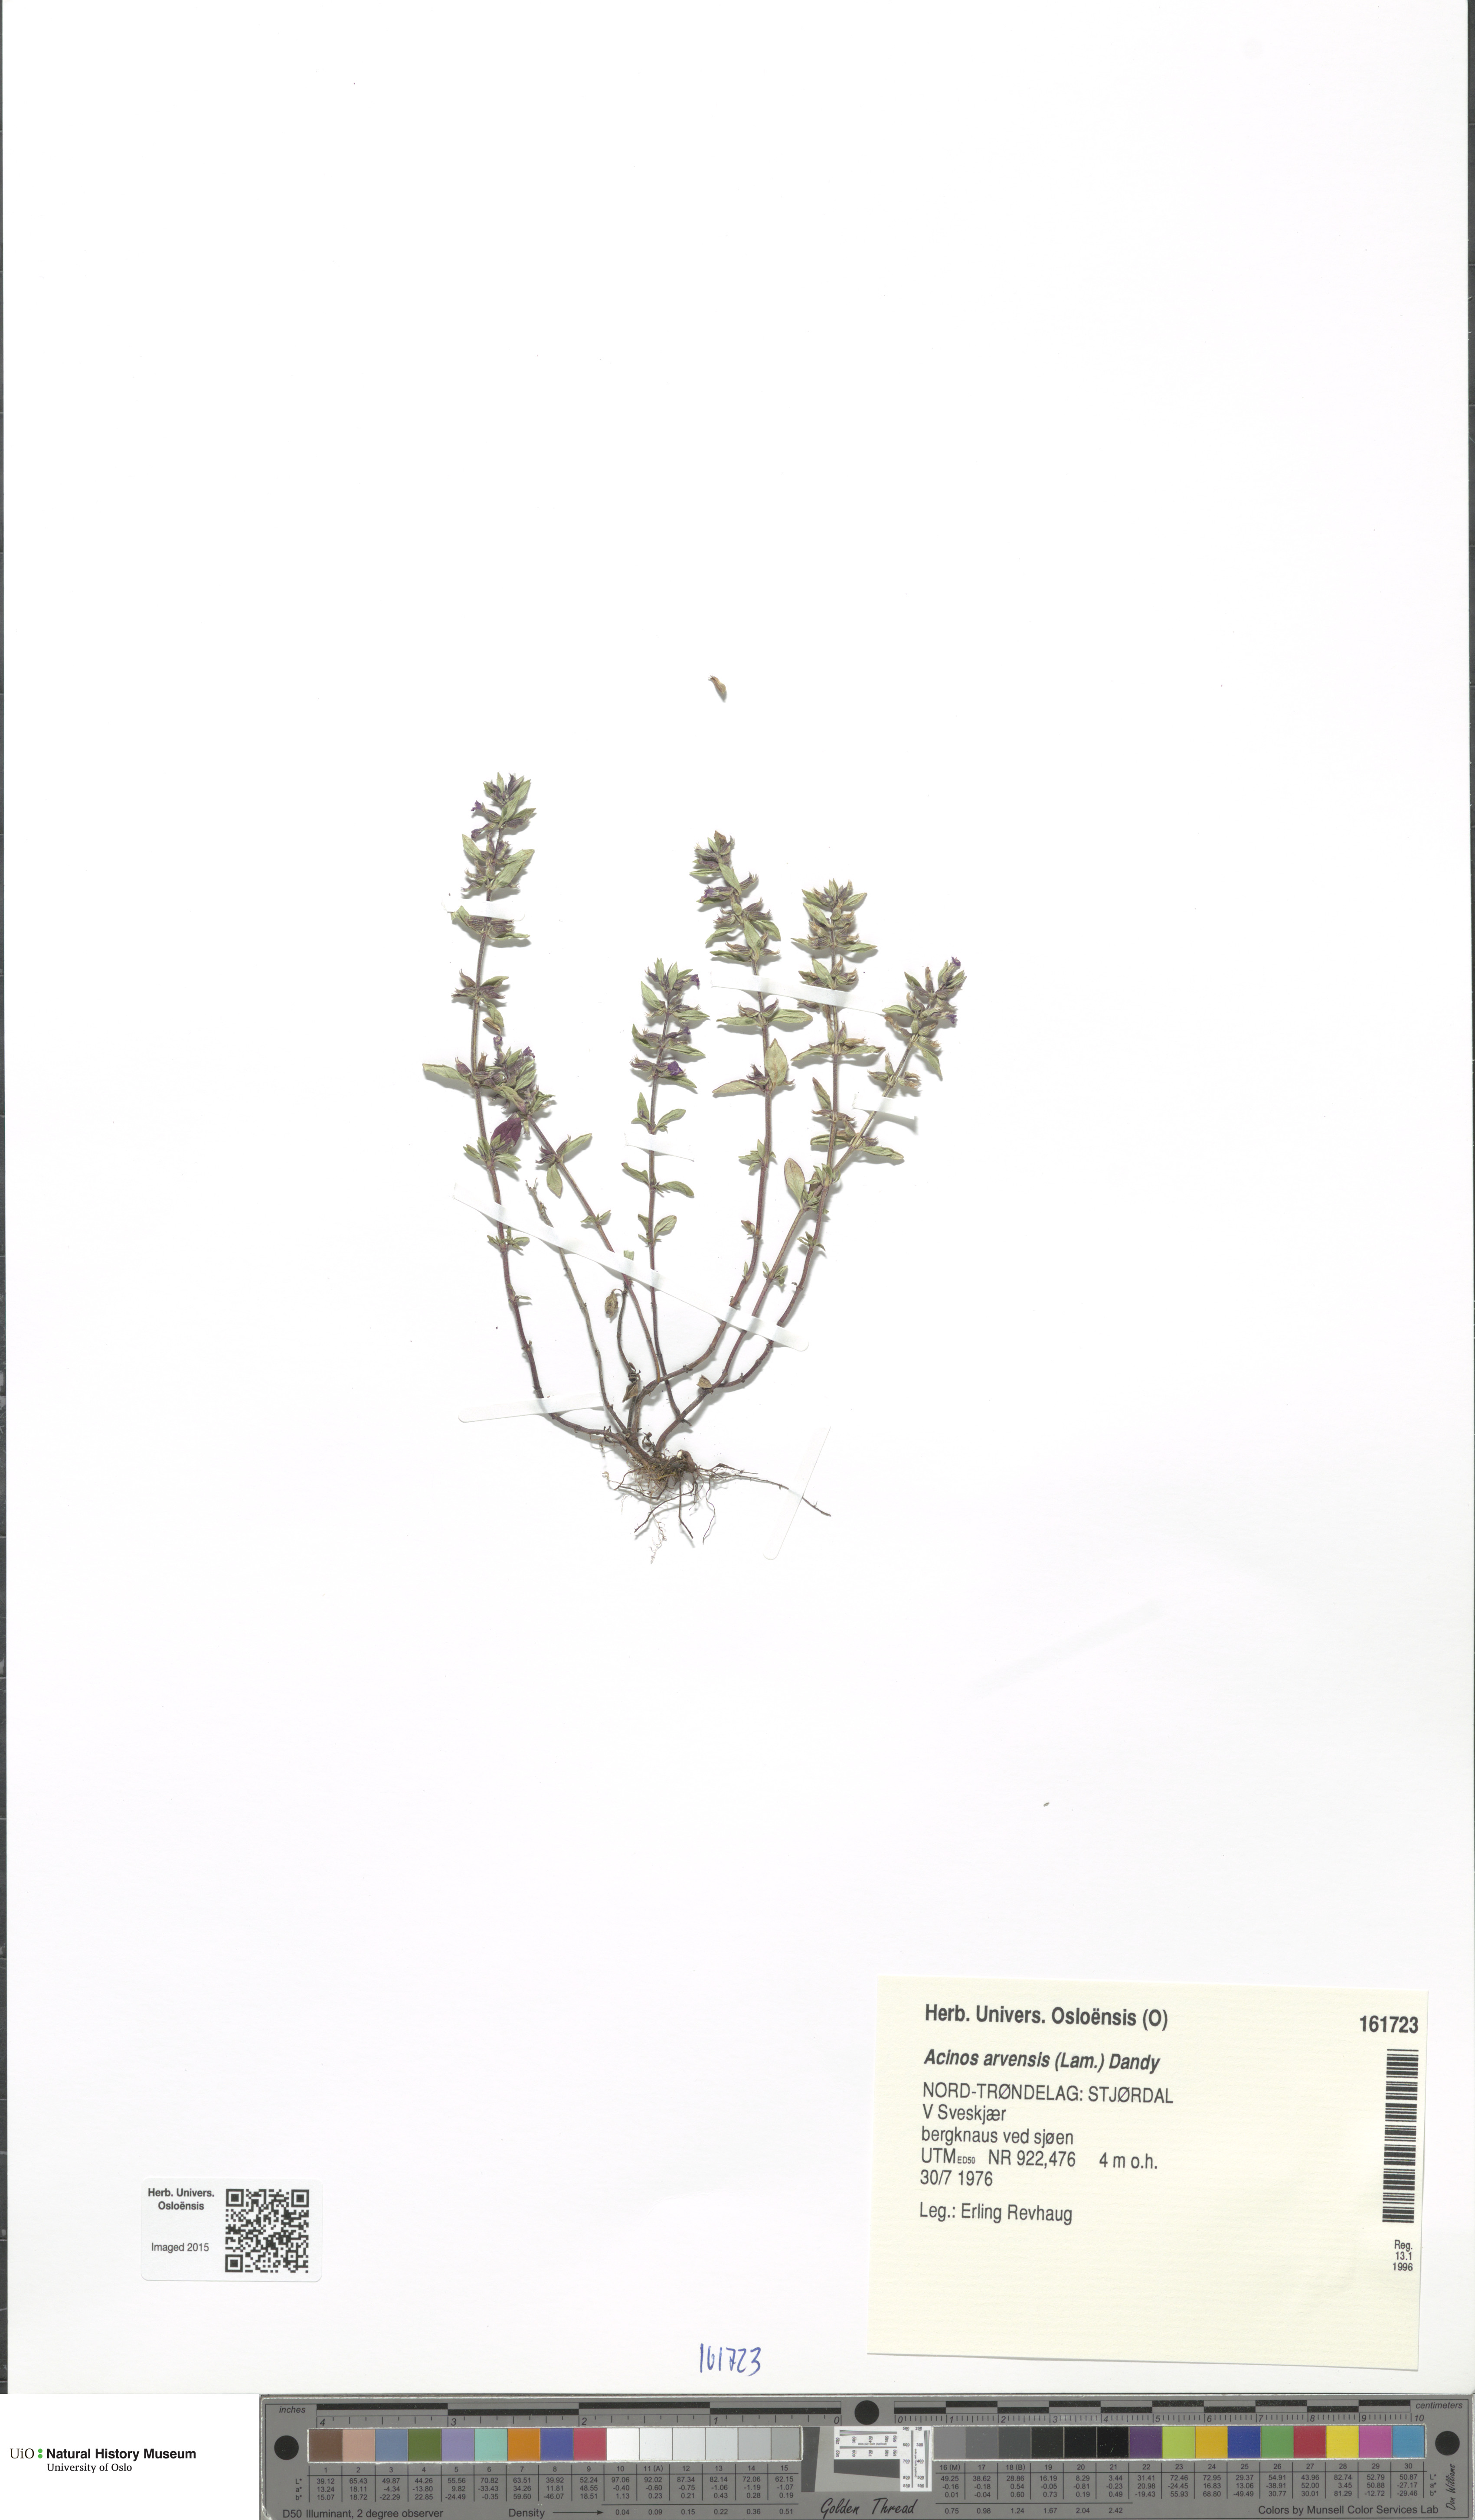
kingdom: Plantae
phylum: Tracheophyta
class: Magnoliopsida
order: Lamiales
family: Lamiaceae
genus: Clinopodium
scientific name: Clinopodium acinos
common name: Basil thyme
